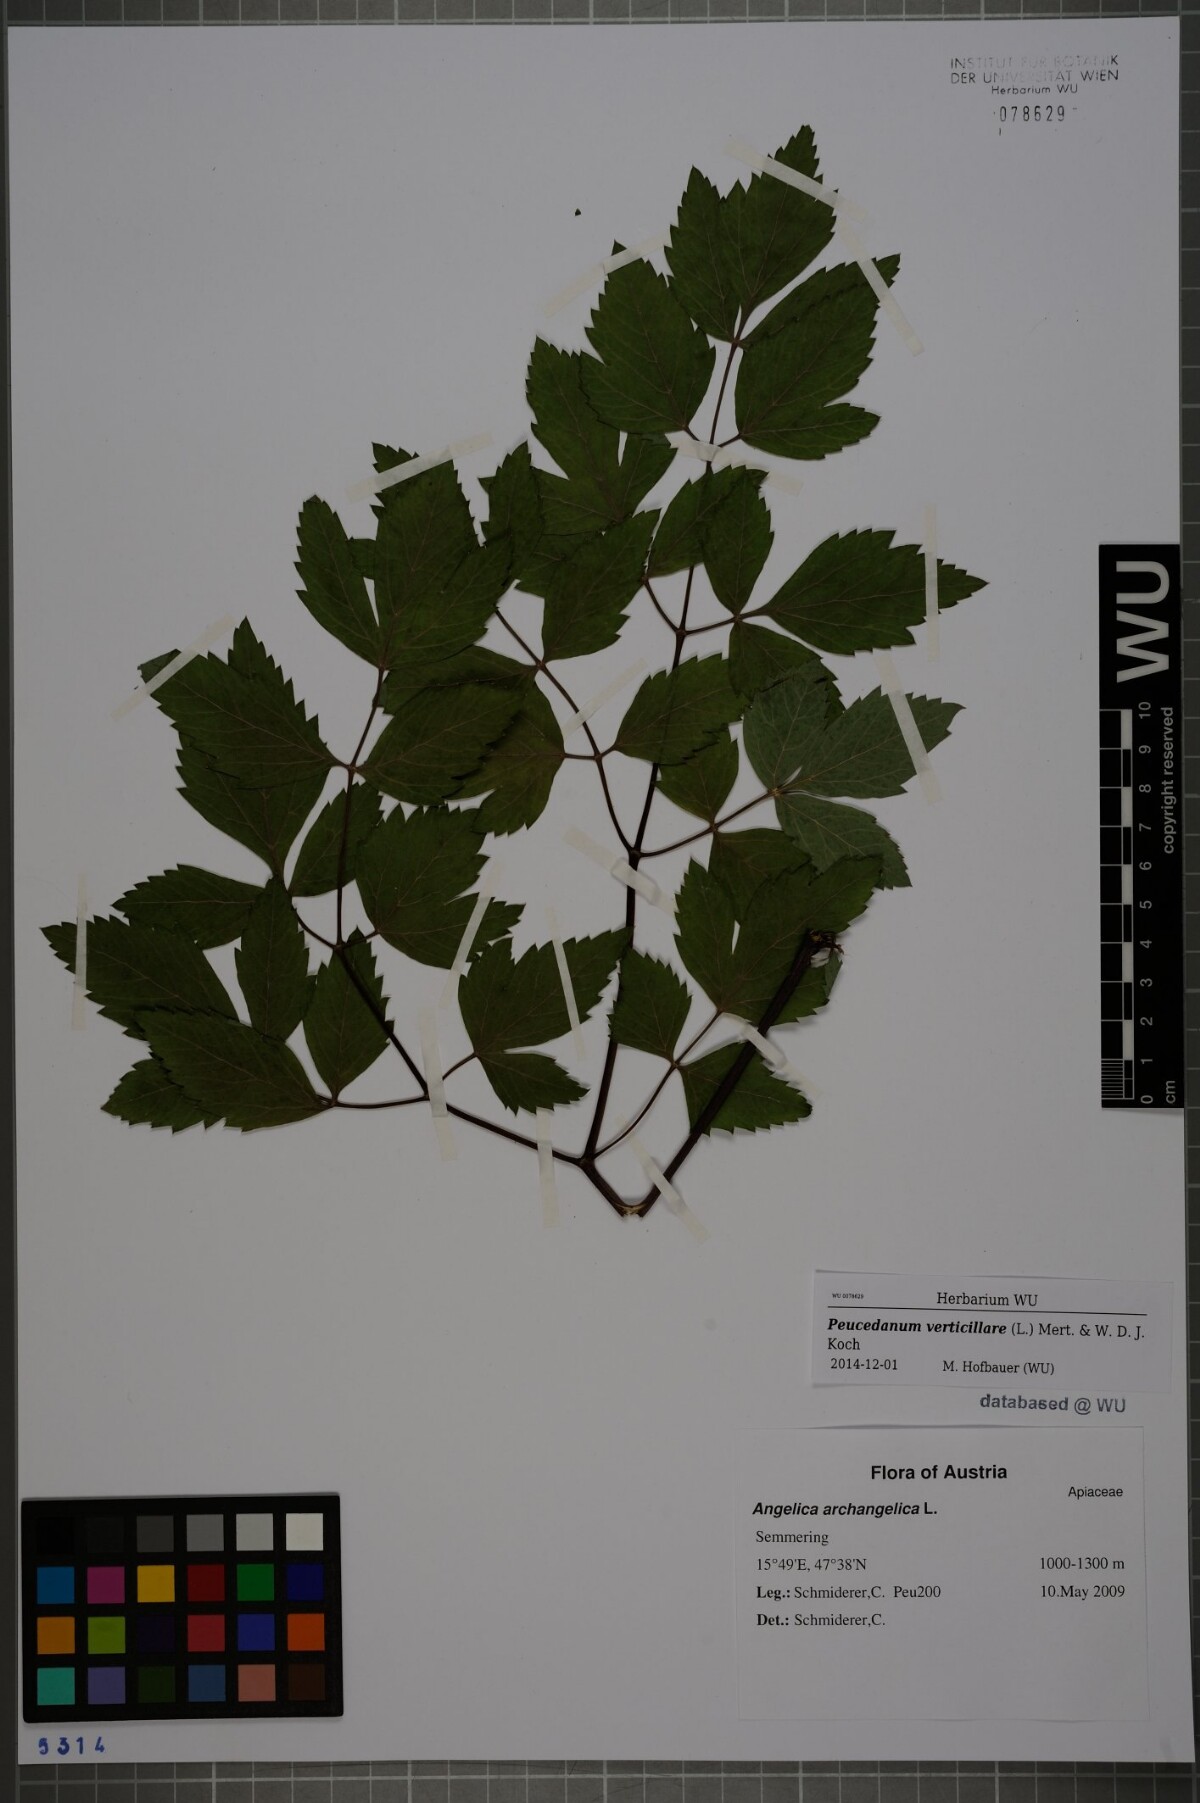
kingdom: Plantae
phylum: Tracheophyta
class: Magnoliopsida
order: Apiales
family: Apiaceae
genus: Tommasinia
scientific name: Tommasinia altissima
